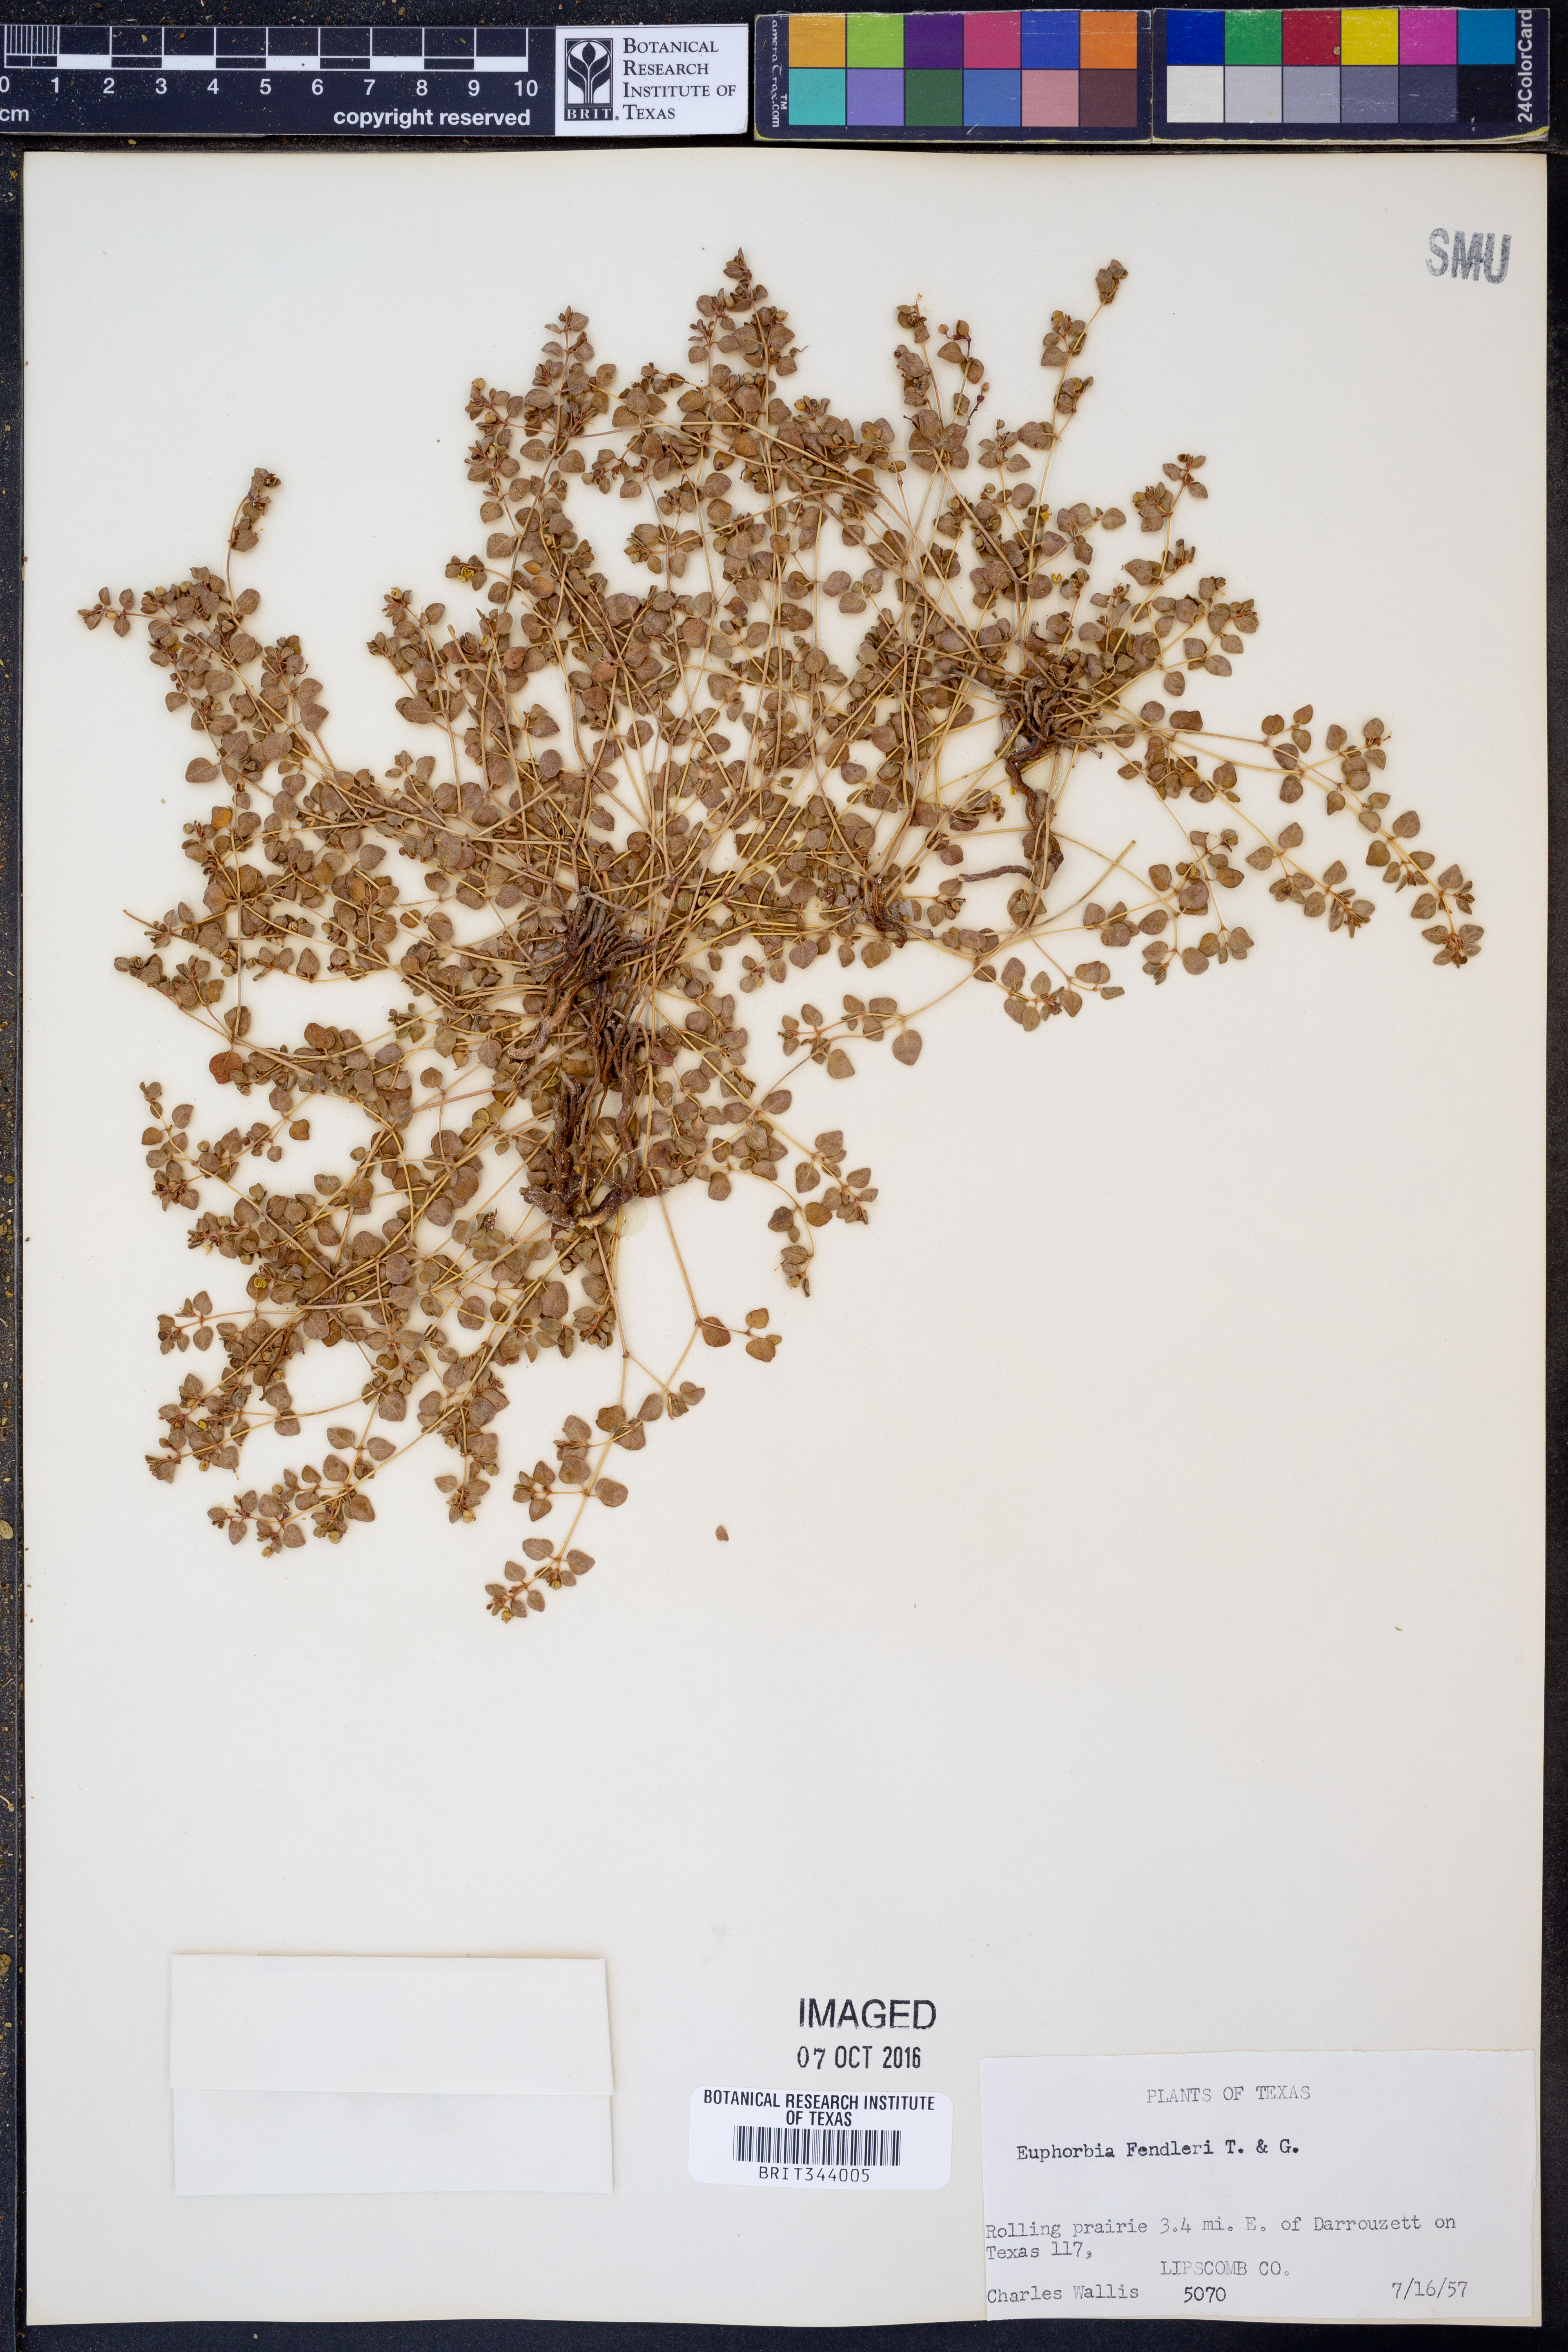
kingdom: Plantae
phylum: Tracheophyta
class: Magnoliopsida
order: Malpighiales
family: Euphorbiaceae
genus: Euphorbia
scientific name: Euphorbia fendleri
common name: Fendler's euphorbia
